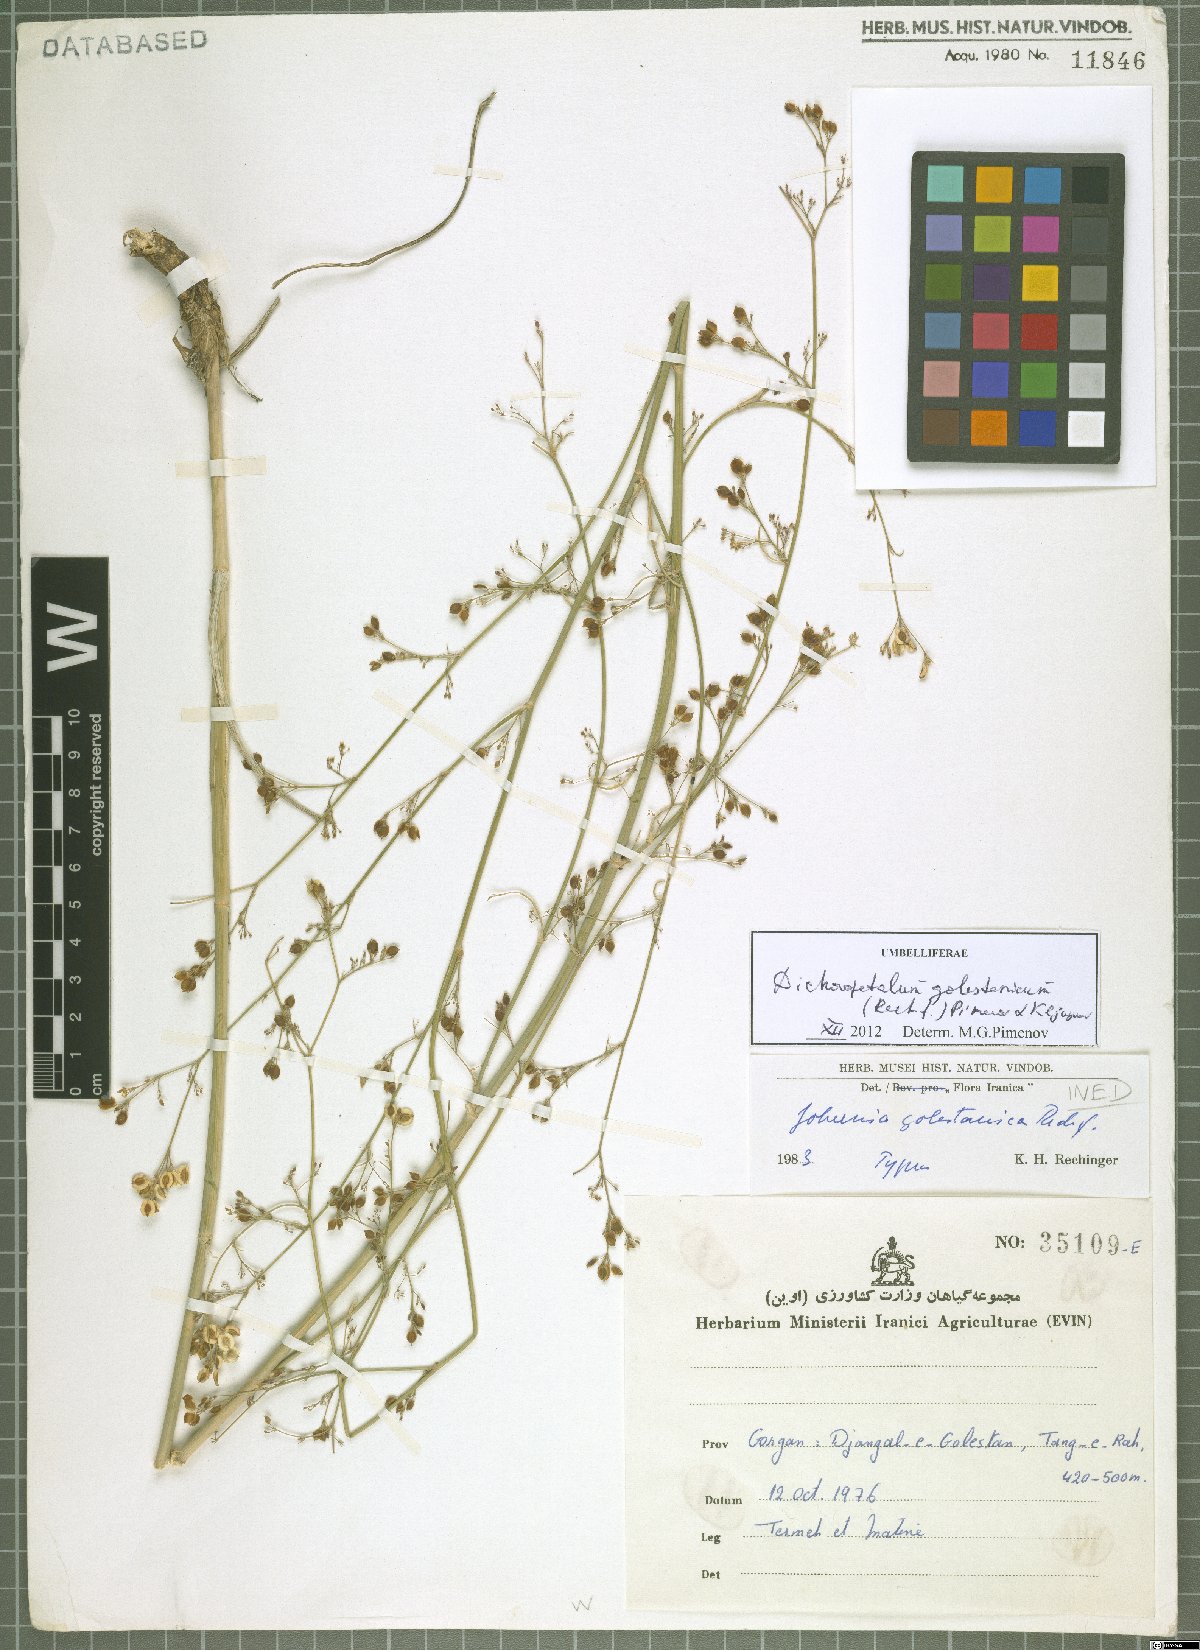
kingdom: Plantae
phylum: Tracheophyta
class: Magnoliopsida
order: Apiales
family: Apiaceae
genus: Dichoropetalum
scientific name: Dichoropetalum golestanicum
